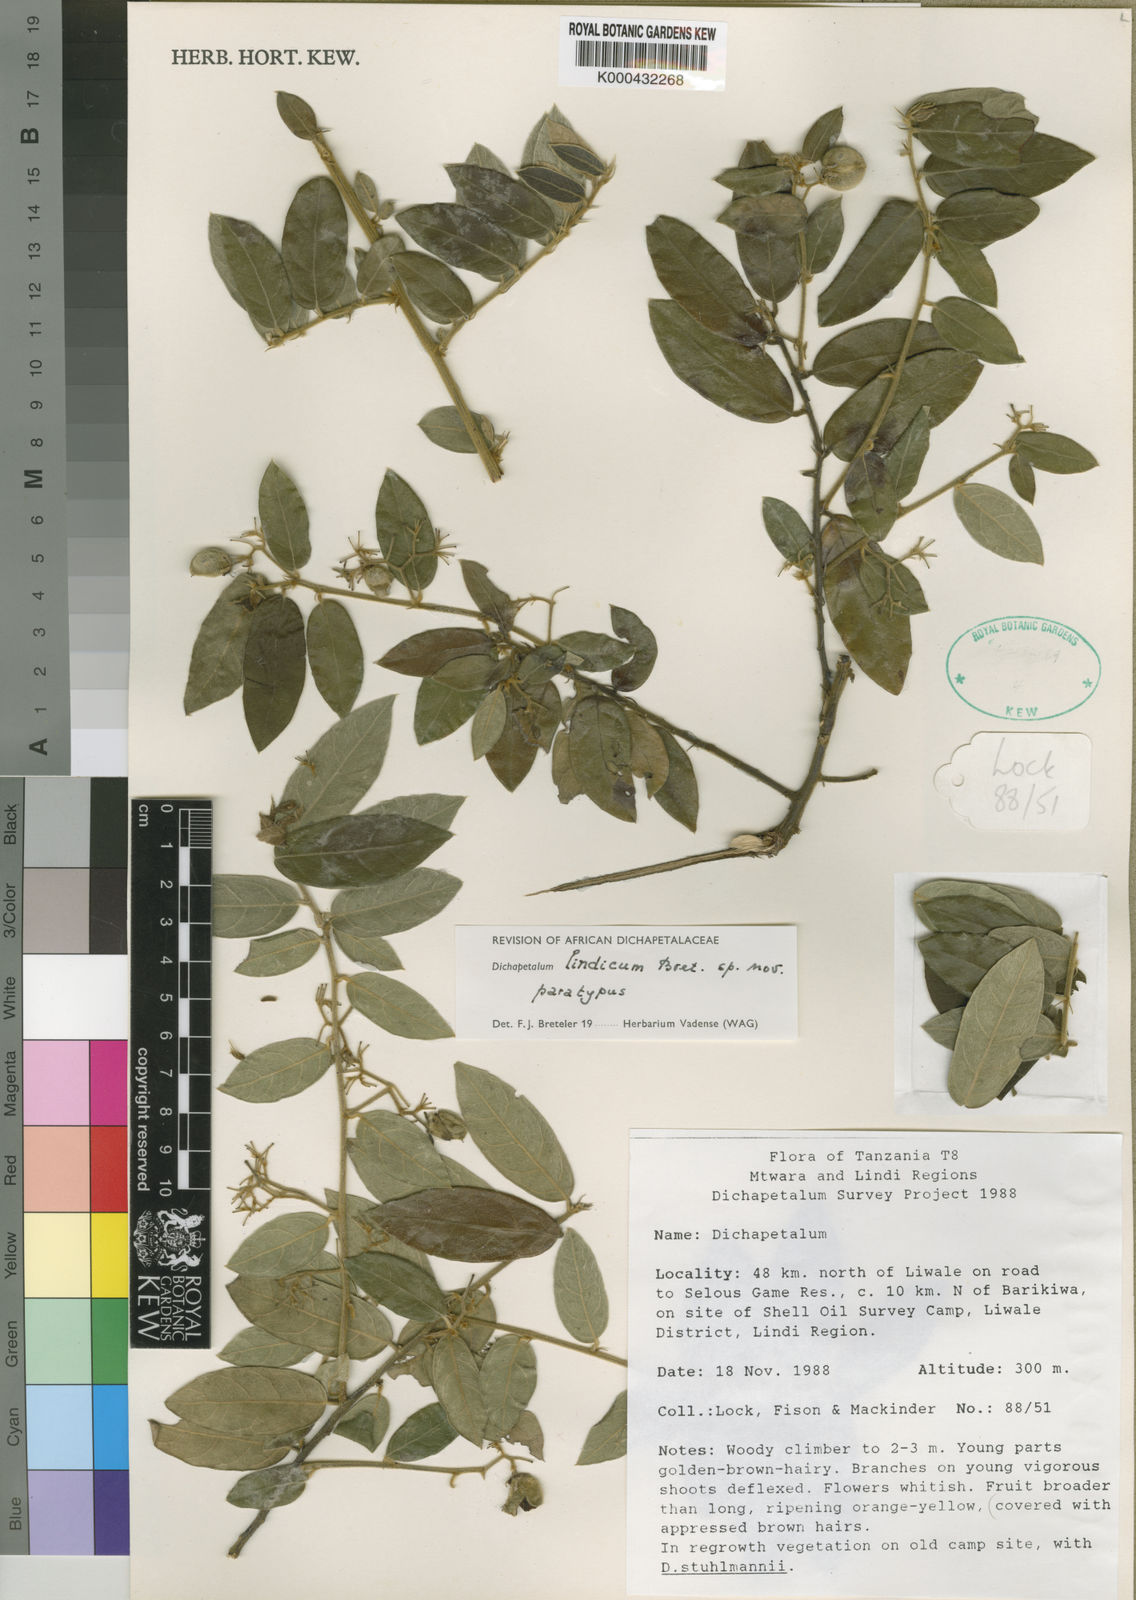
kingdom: Plantae
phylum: Tracheophyta
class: Magnoliopsida
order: Malpighiales
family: Dichapetalaceae
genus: Dichapetalum
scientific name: Dichapetalum lindicum
